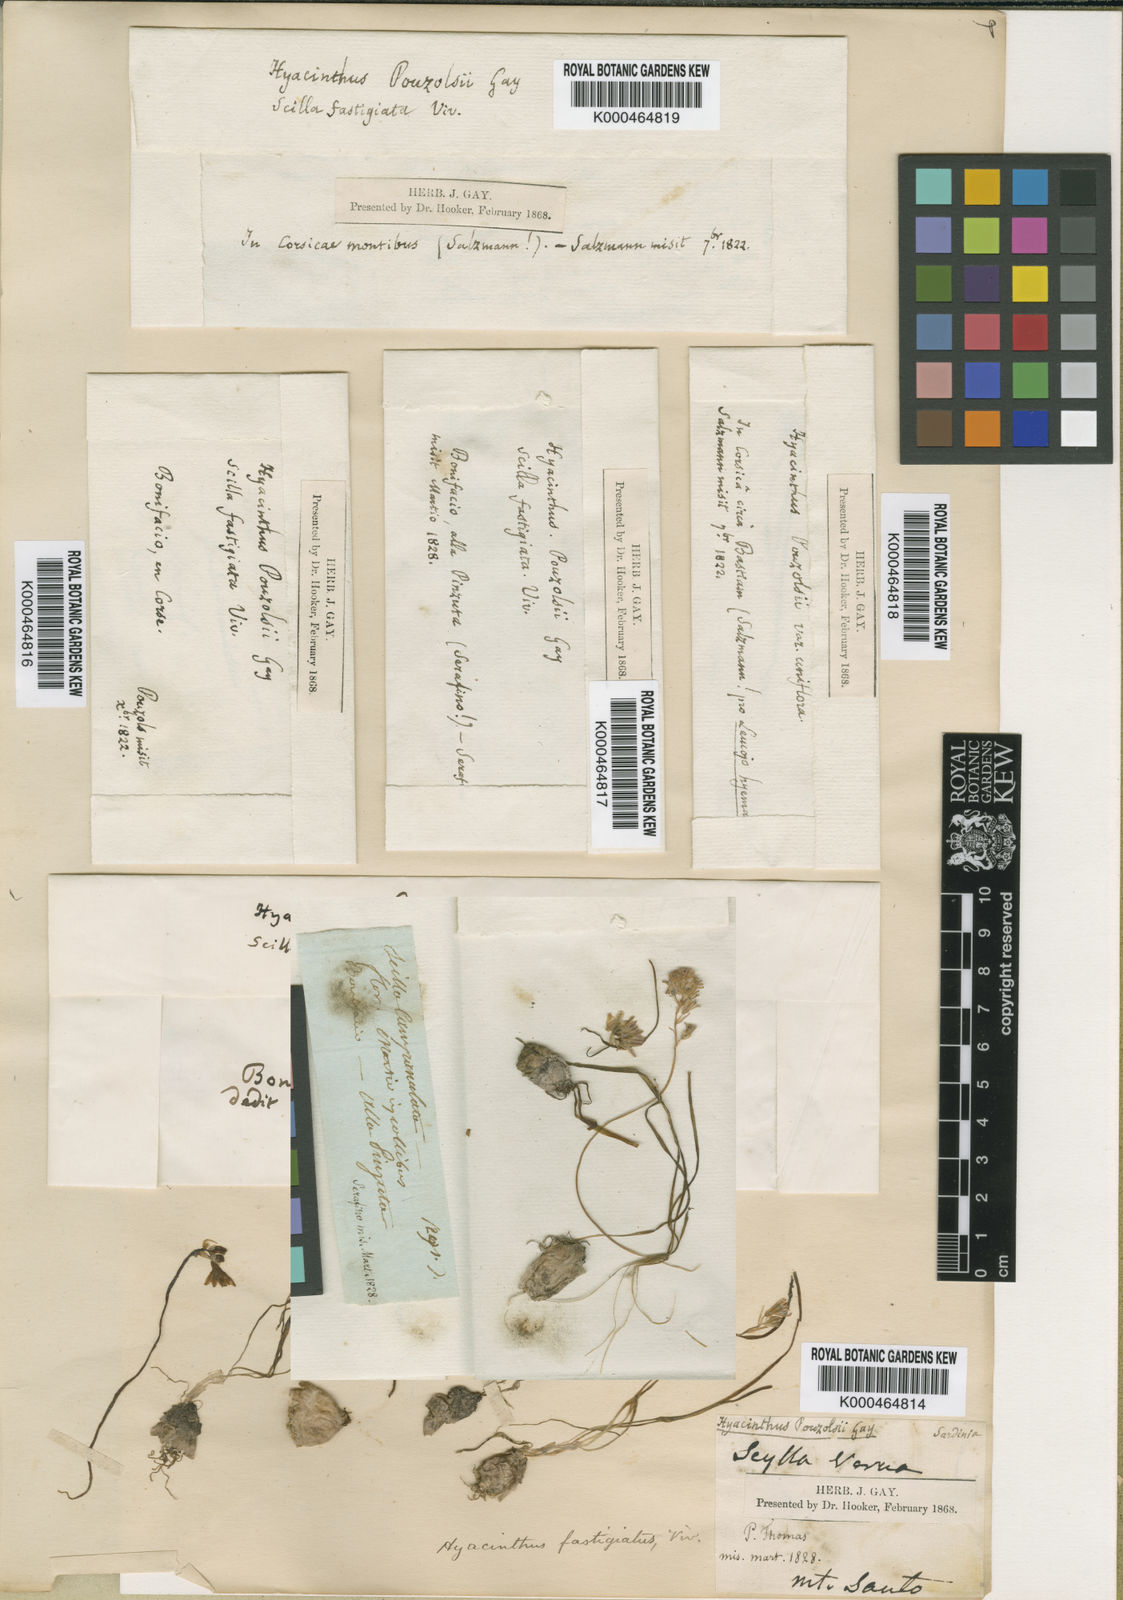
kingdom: Plantae
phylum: Tracheophyta
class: Liliopsida
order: Asparagales
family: Asparagaceae
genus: Brimeura
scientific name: Brimeura fastigiata
